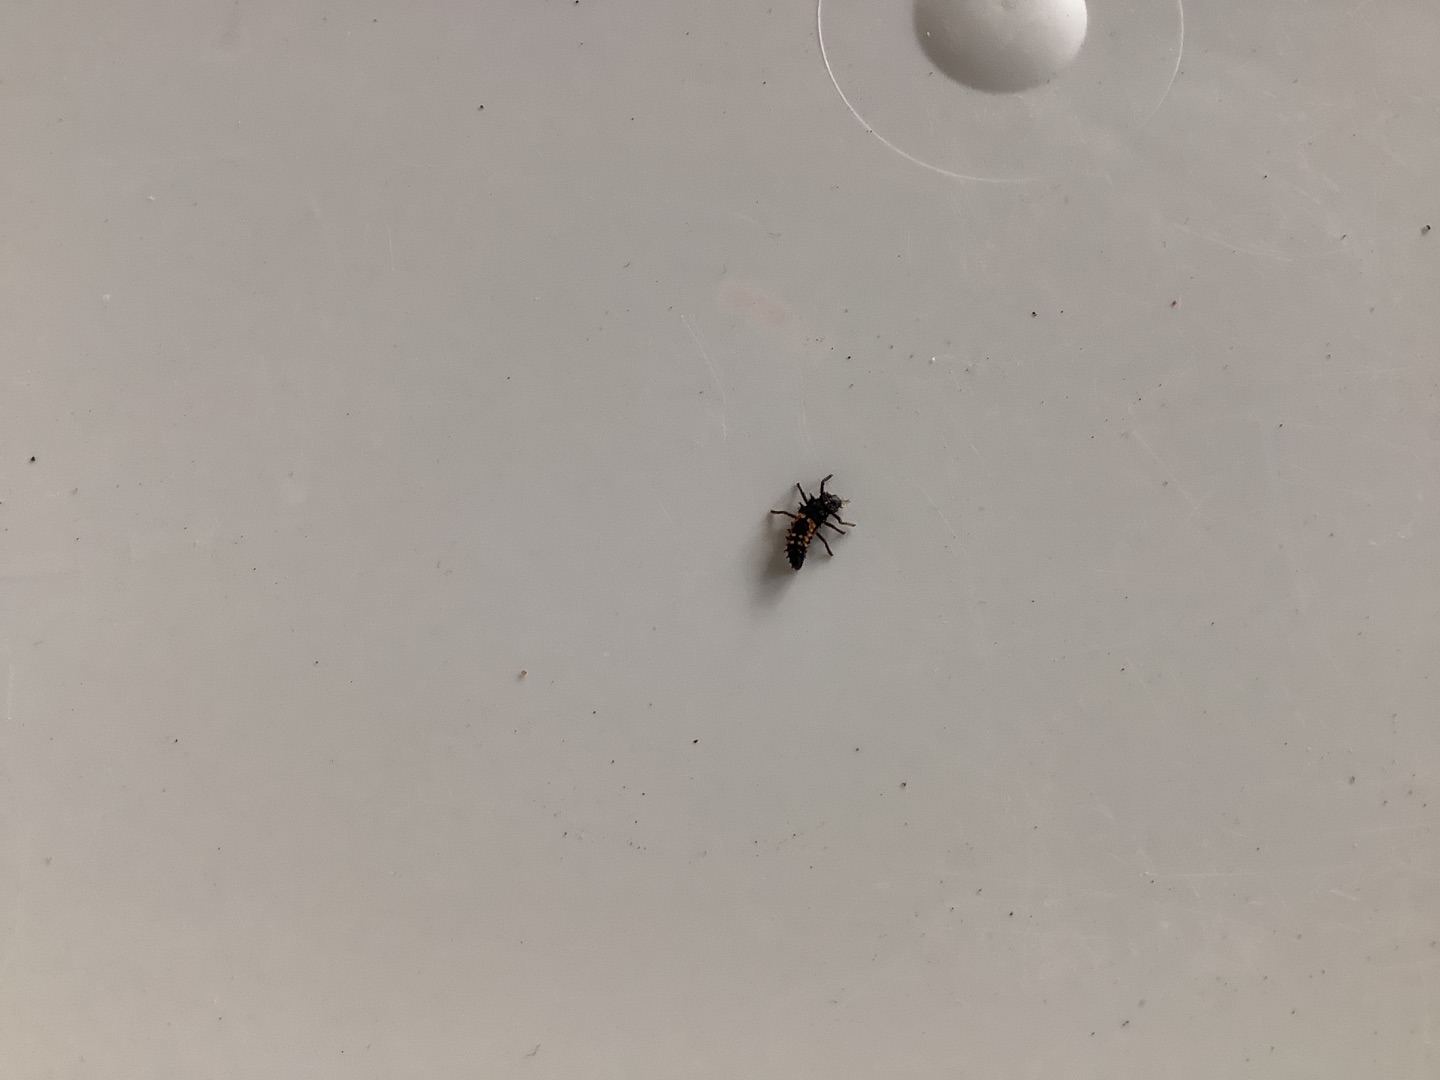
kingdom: Animalia
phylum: Arthropoda
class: Insecta
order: Coleoptera
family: Coccinellidae
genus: Harmonia
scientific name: Harmonia axyridis
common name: Harlekinmariehøne
